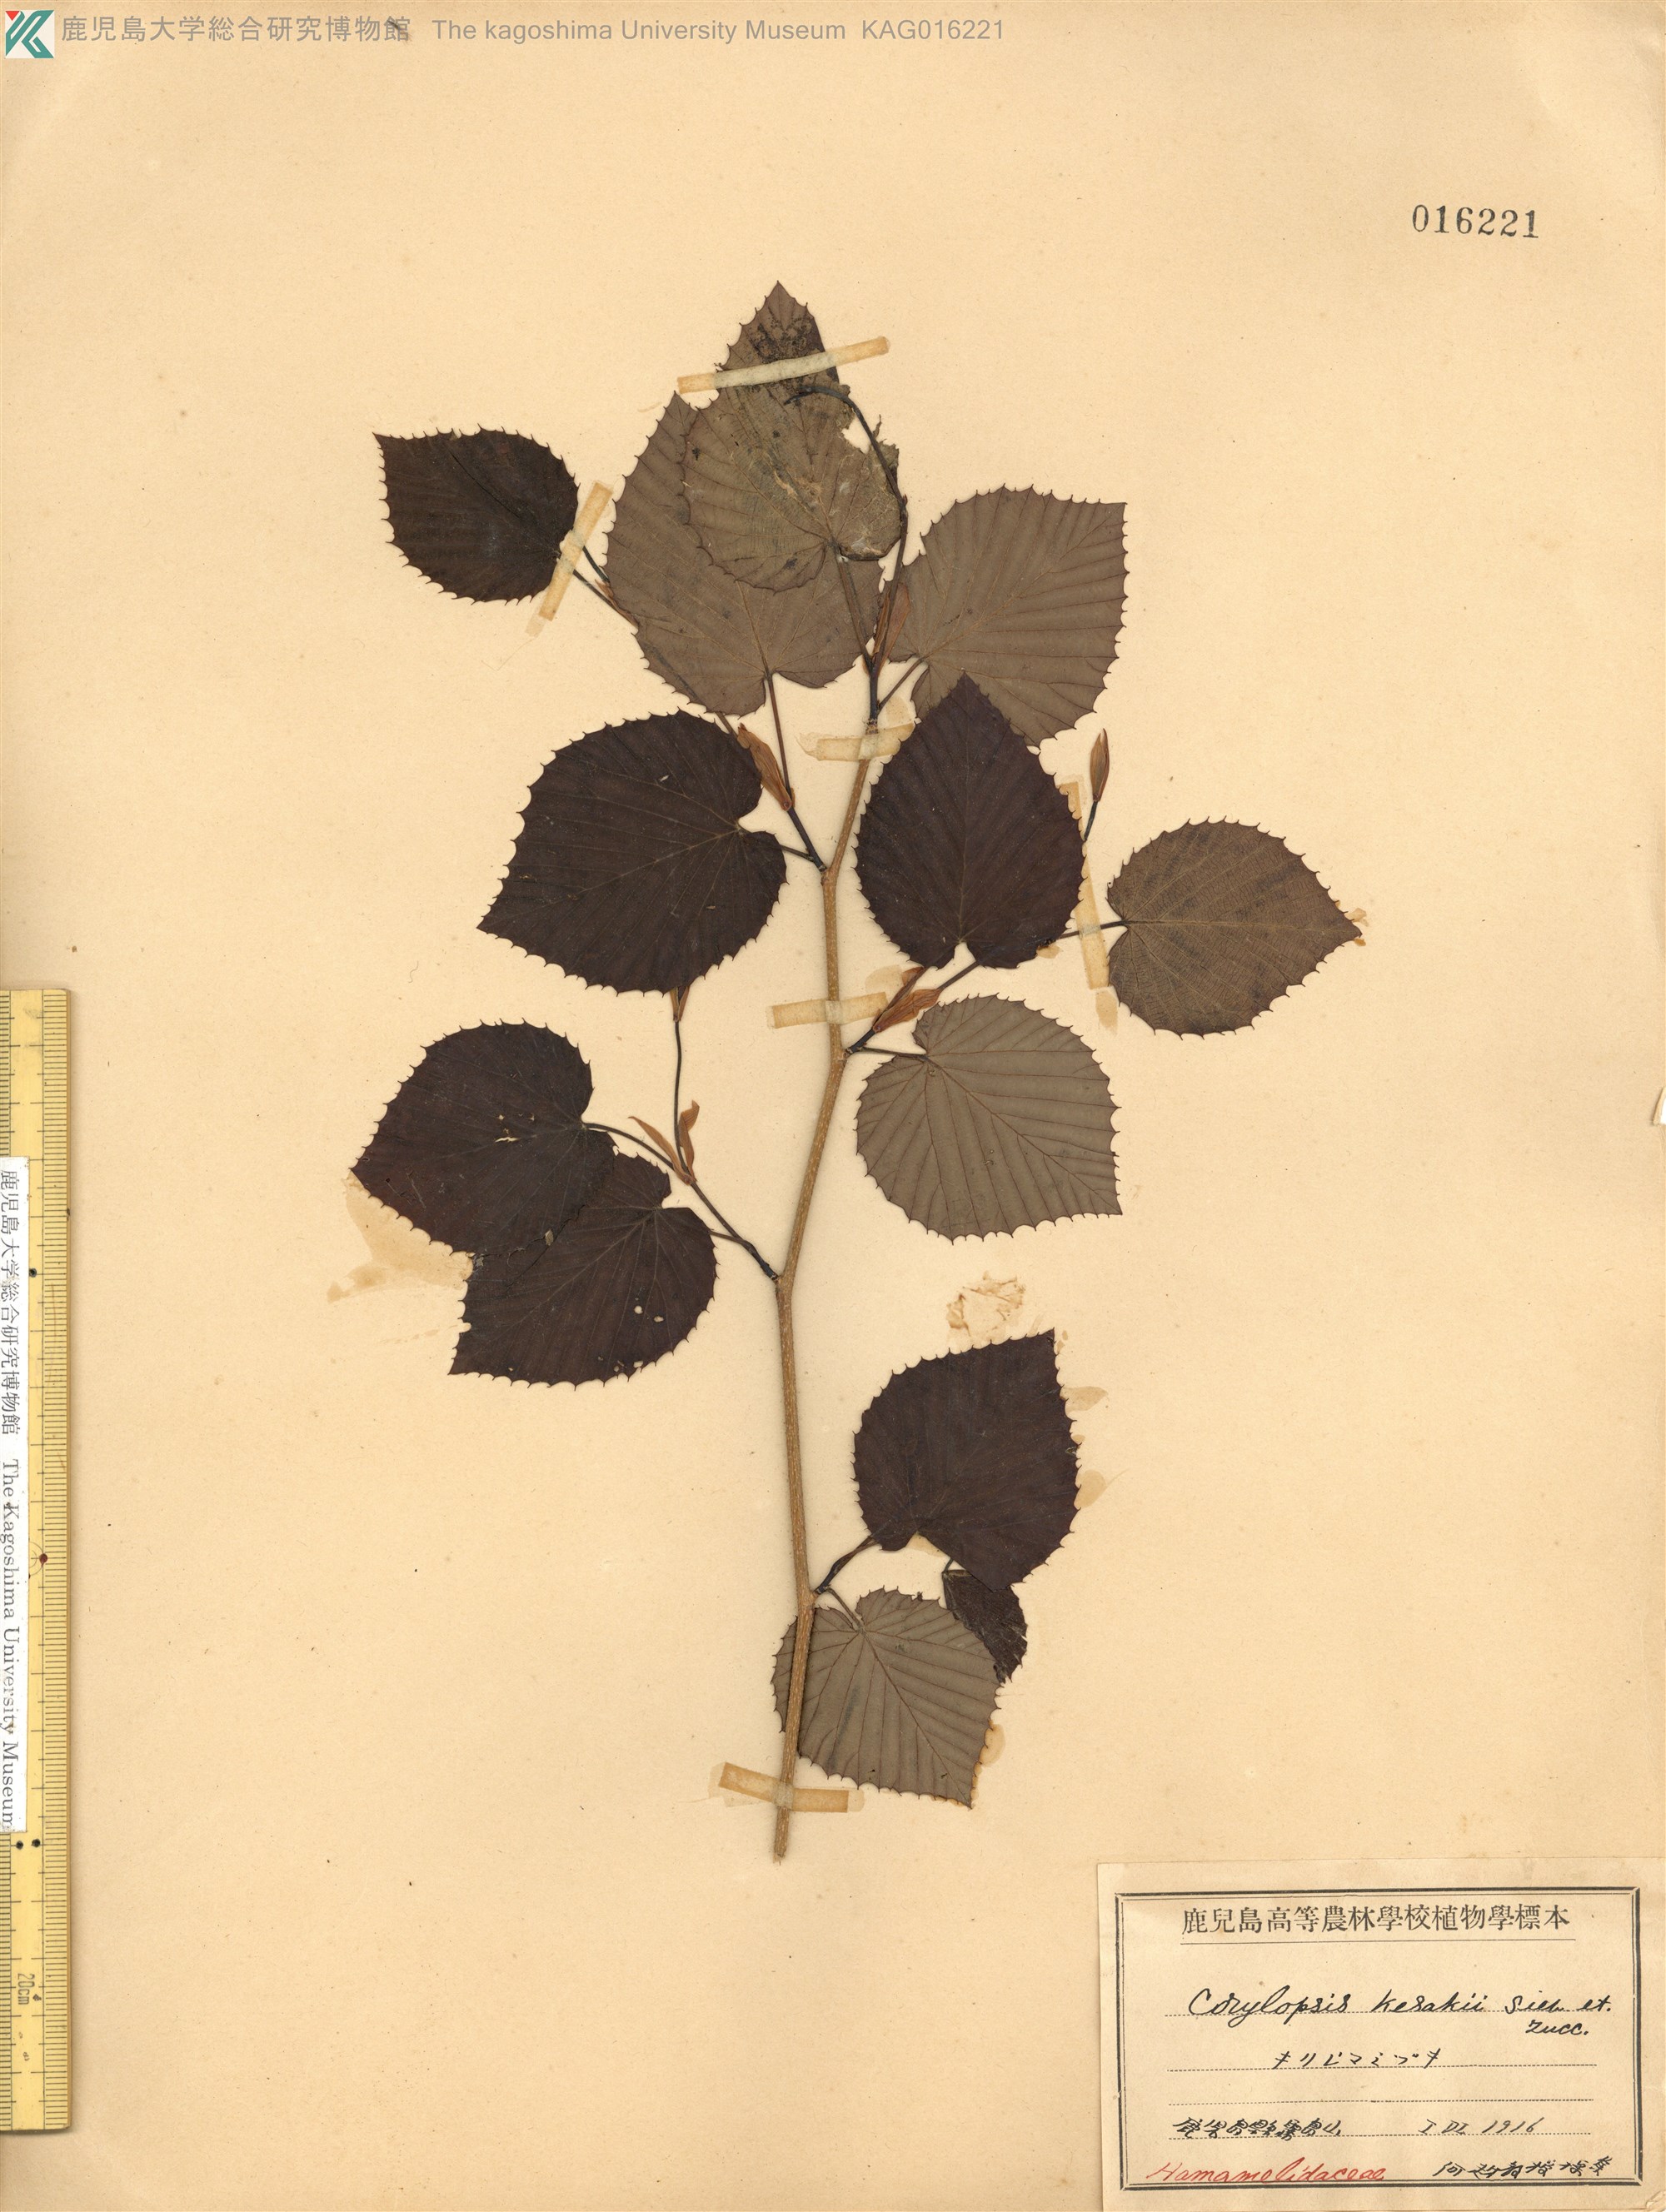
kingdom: Plantae
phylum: Tracheophyta
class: Magnoliopsida
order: Saxifragales
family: Hamamelidaceae
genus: Corylopsis
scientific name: Corylopsis glabrescens
